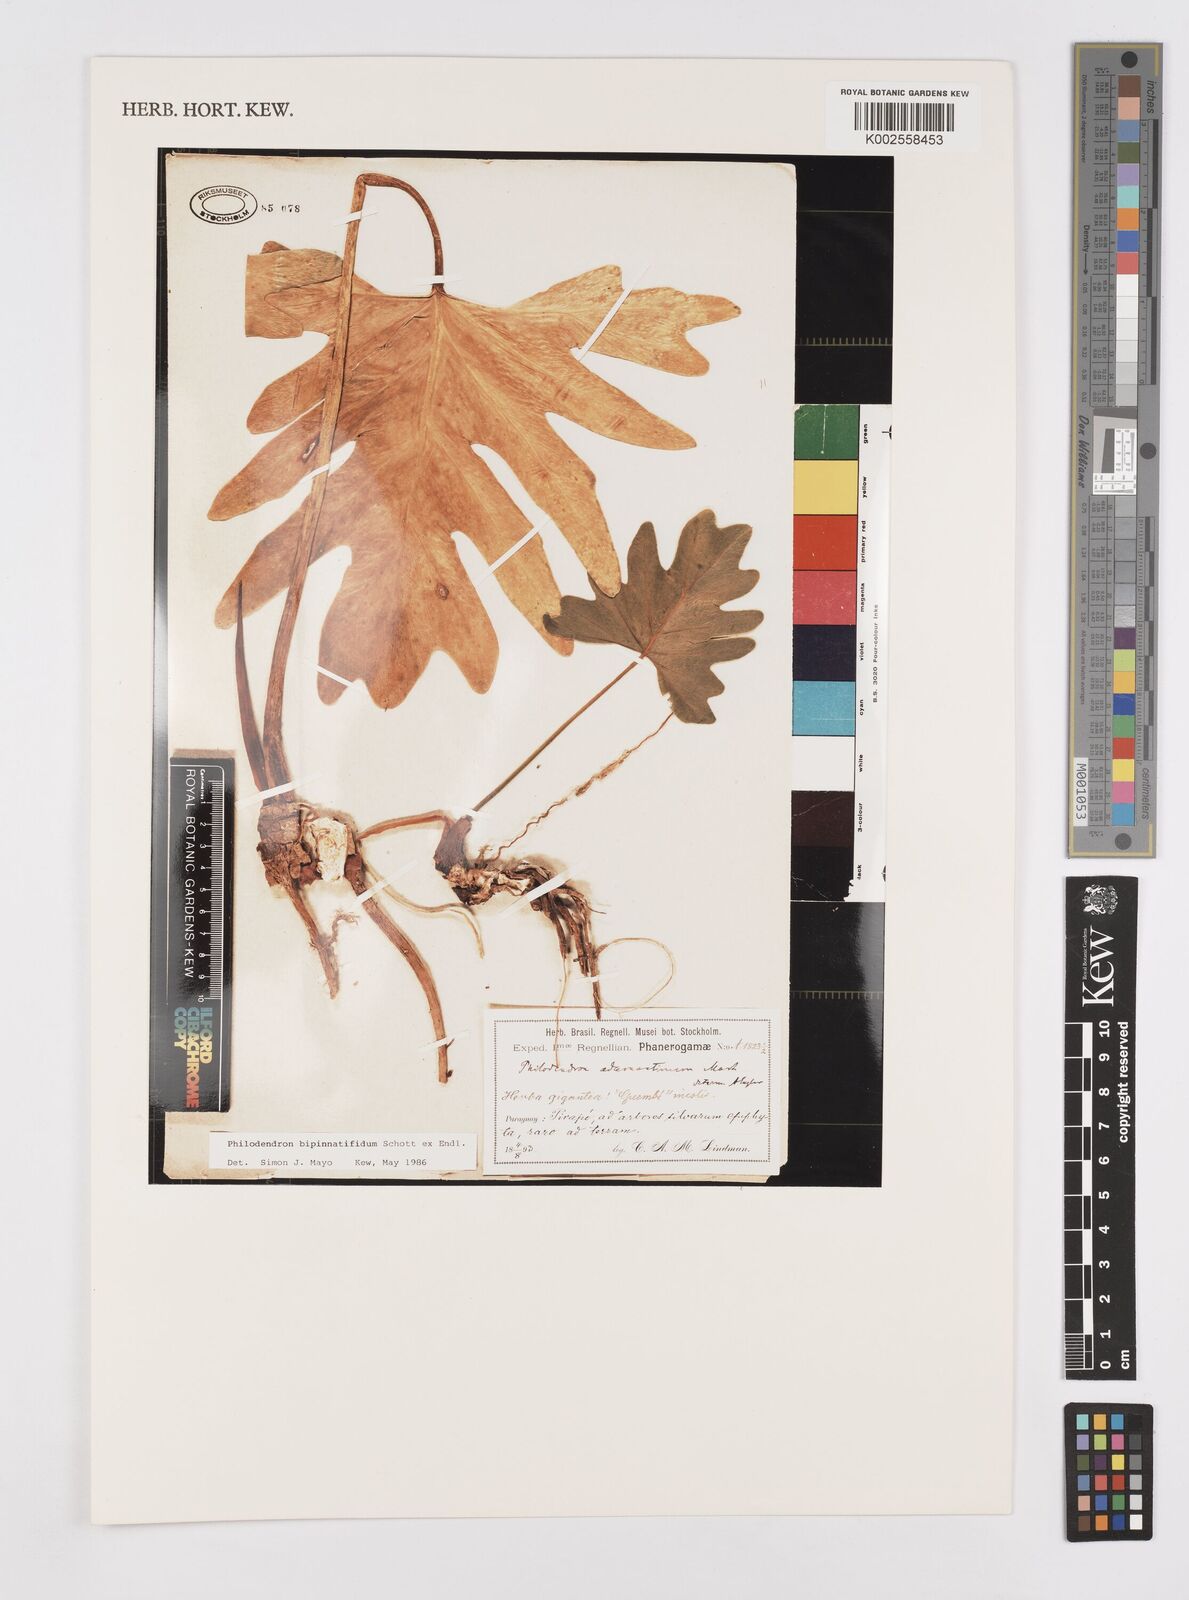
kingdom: Plantae
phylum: Tracheophyta
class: Liliopsida
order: Alismatales
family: Araceae
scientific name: Araceae
